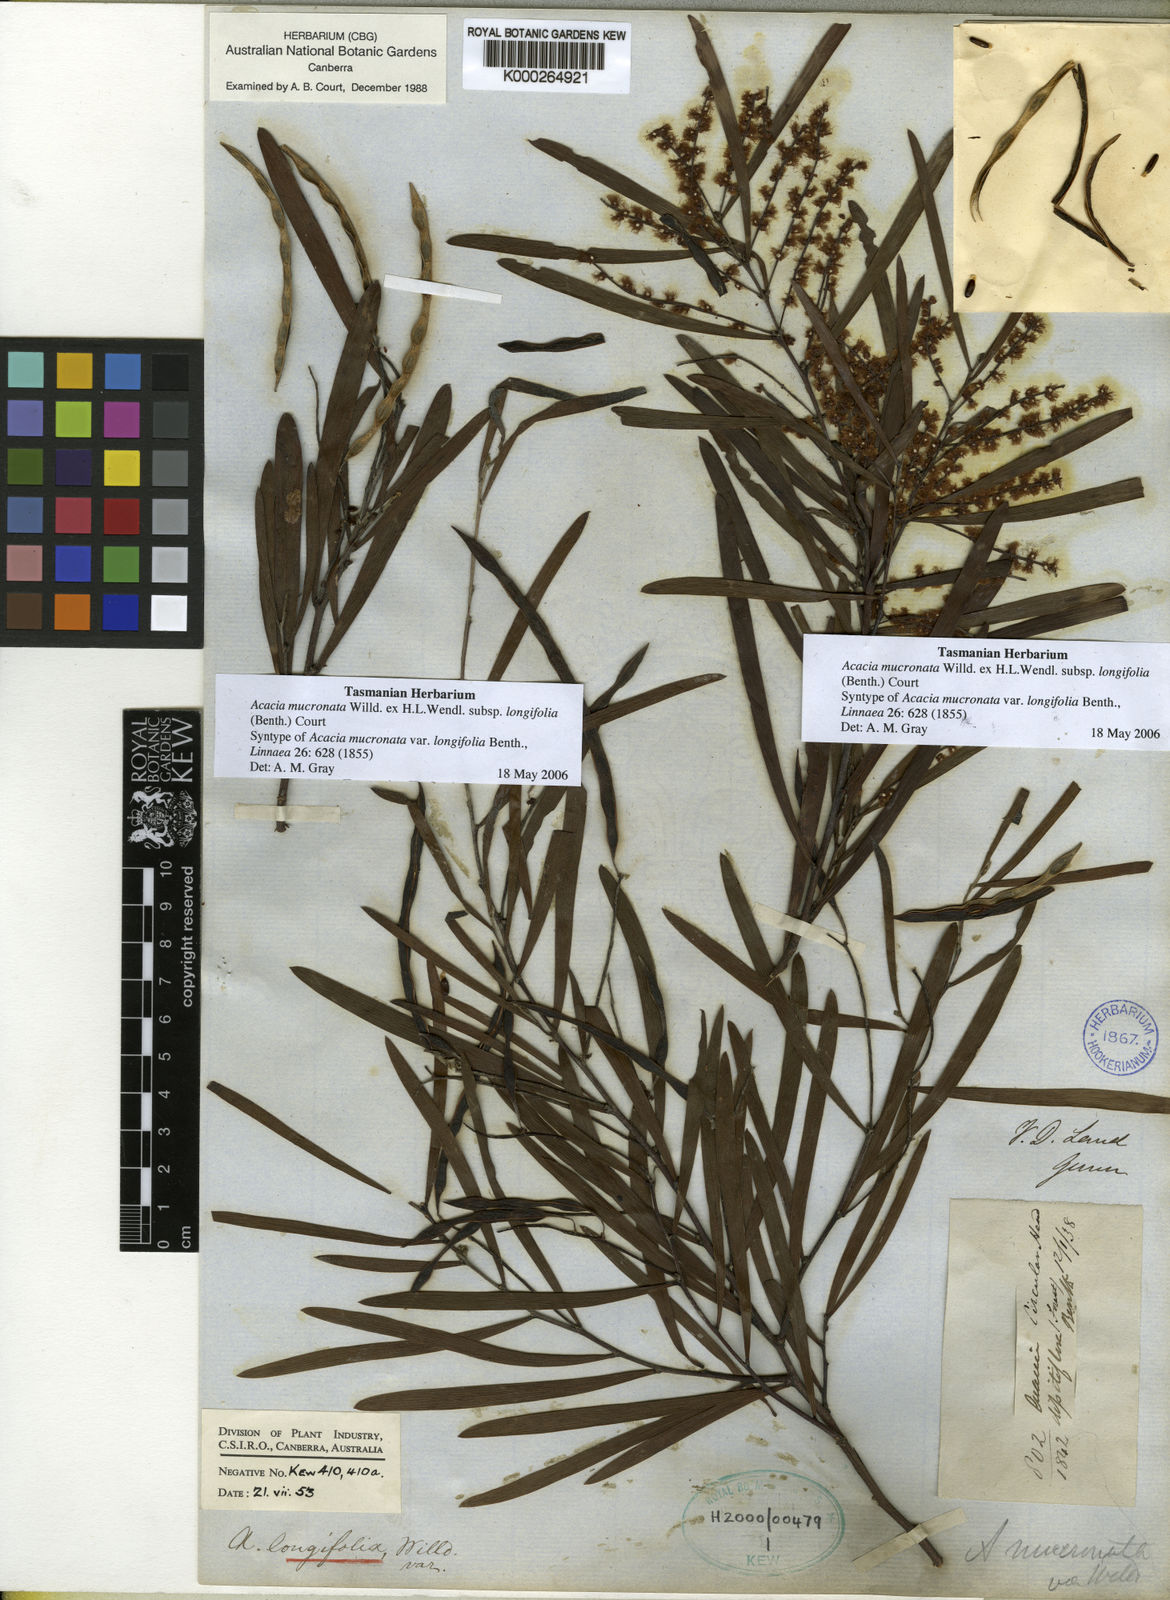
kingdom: Plantae
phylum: Tracheophyta
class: Magnoliopsida
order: Fabales
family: Fabaceae
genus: Acacia
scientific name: Acacia
